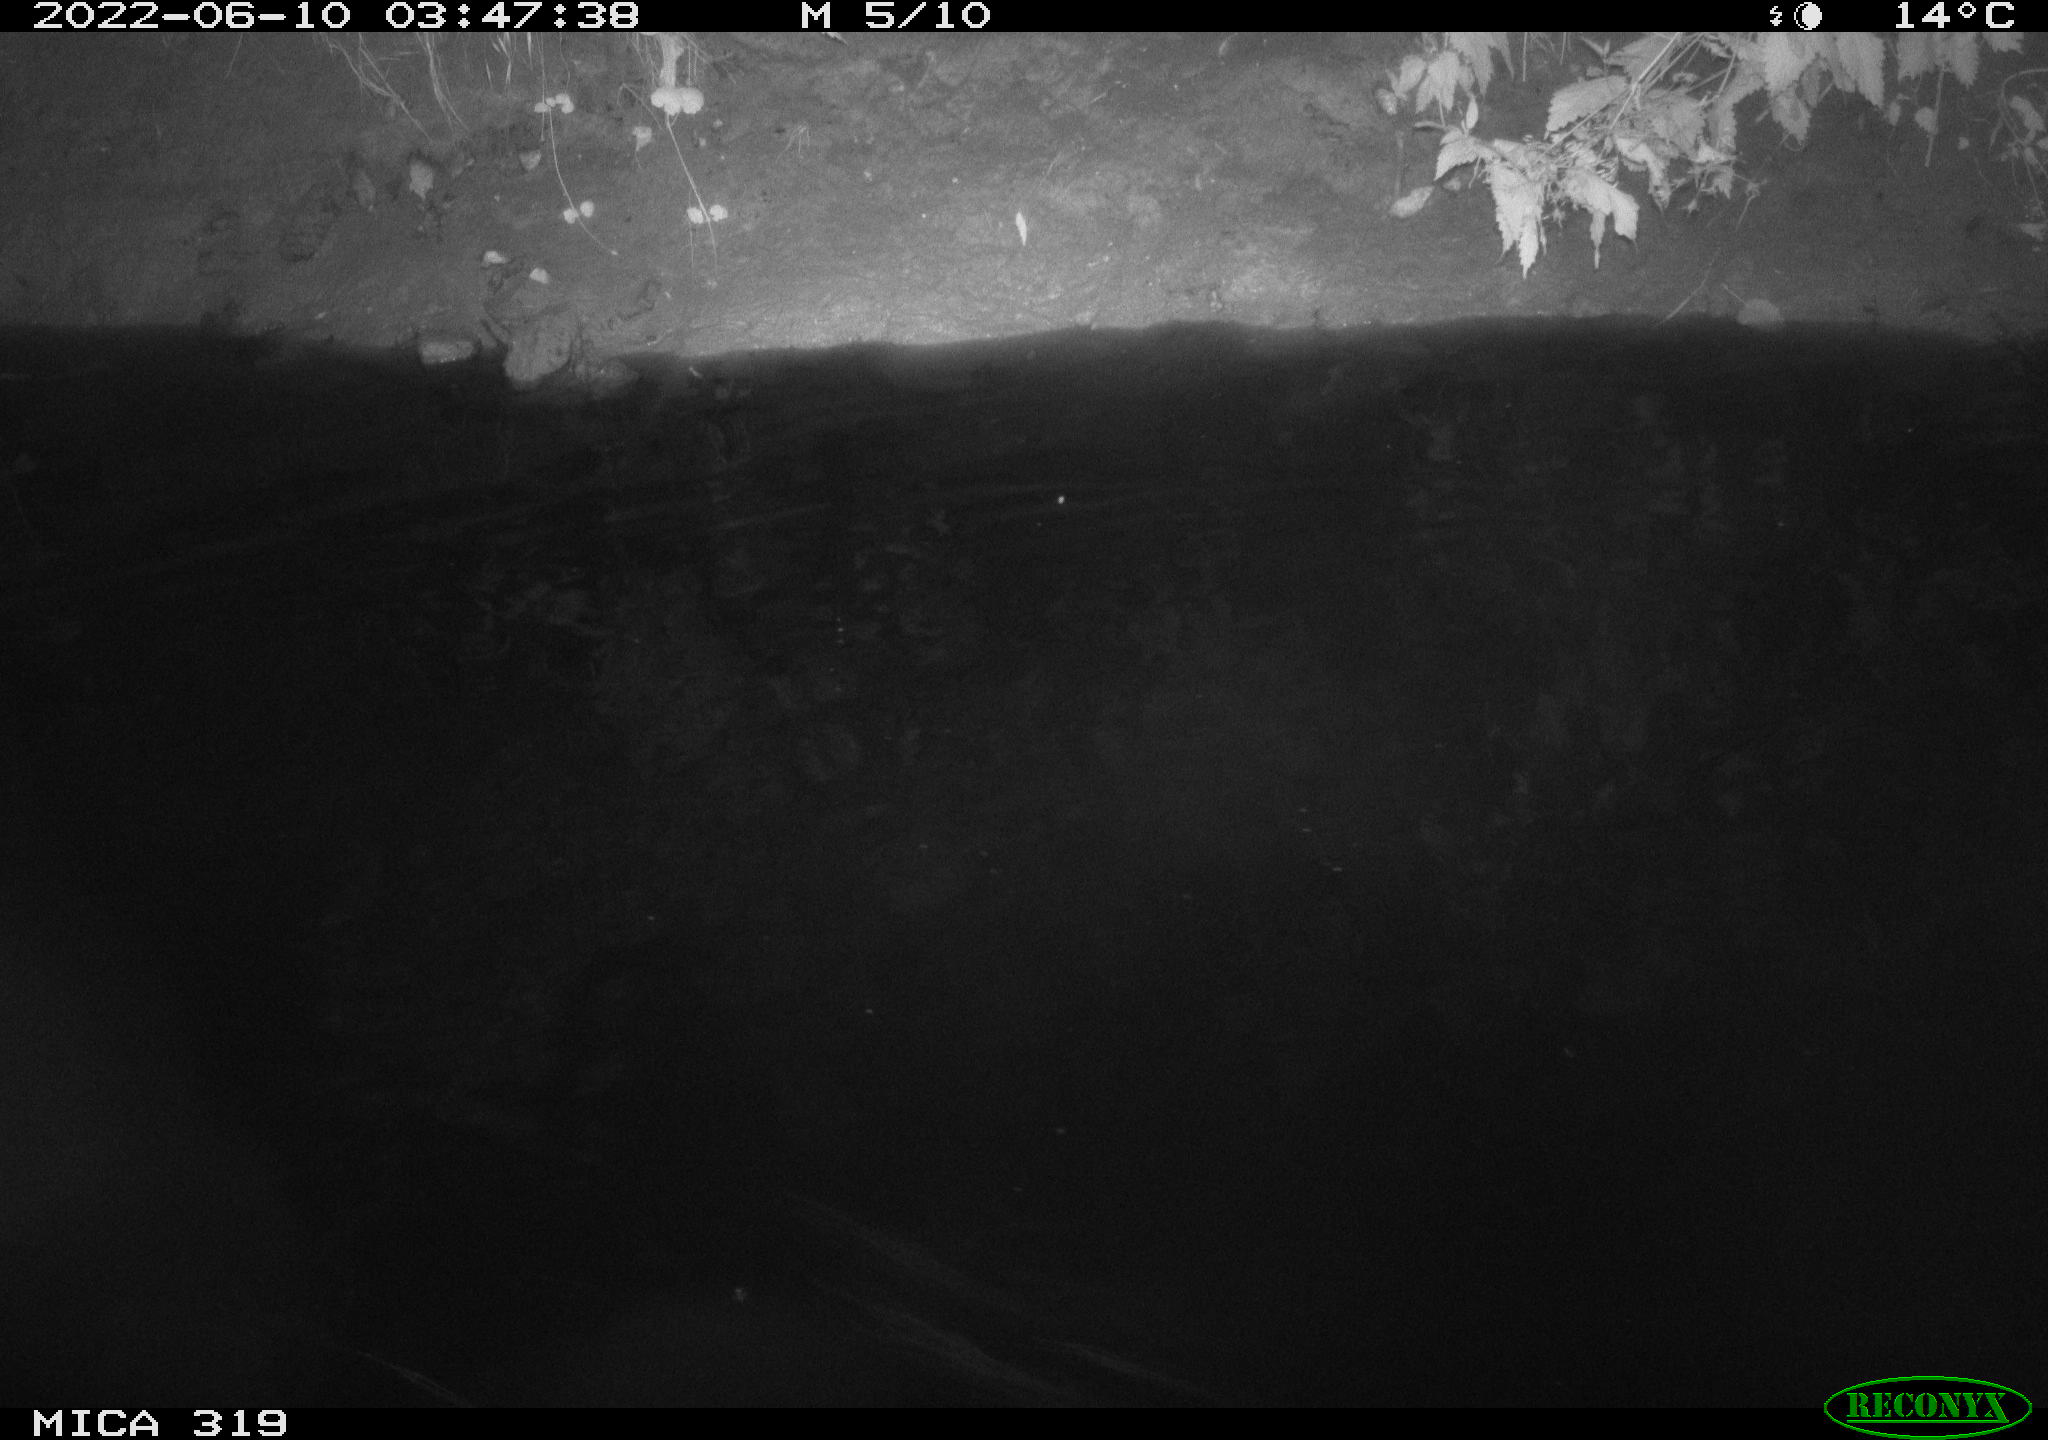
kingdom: Animalia
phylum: Chordata
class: Aves
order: Anseriformes
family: Anatidae
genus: Anas
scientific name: Anas
